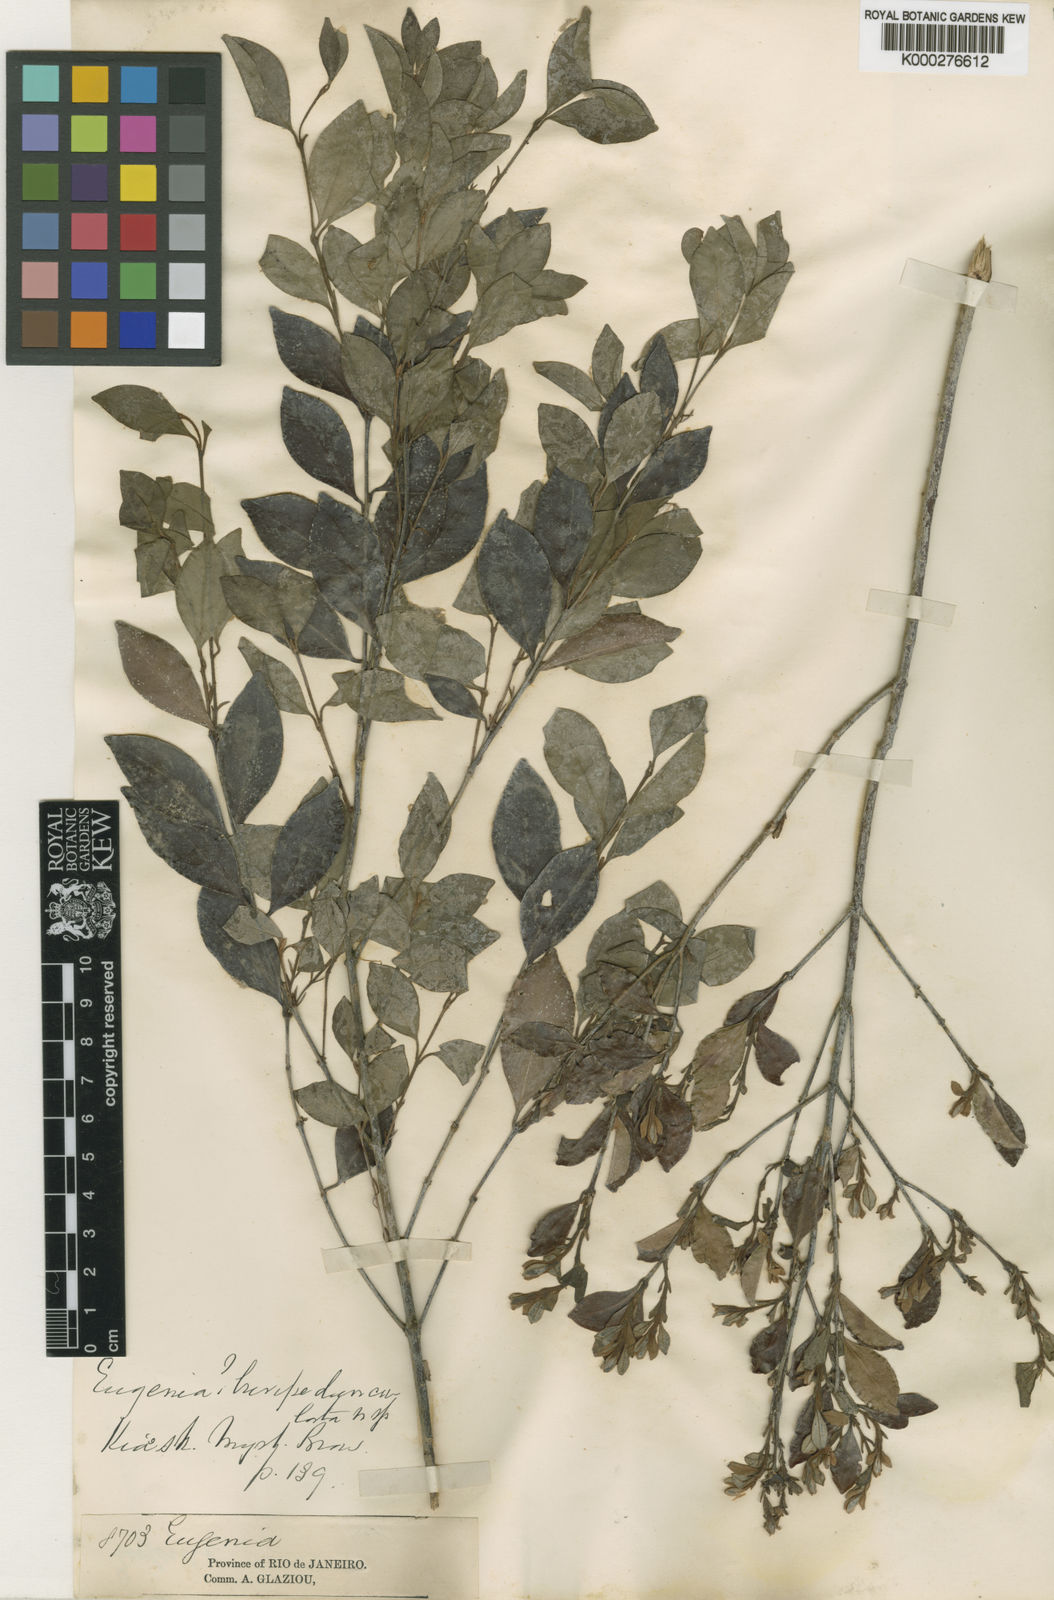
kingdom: Plantae
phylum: Tracheophyta
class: Magnoliopsida
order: Myrtales
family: Myrtaceae
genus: Eugenia
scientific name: Eugenia brevipedunculata
